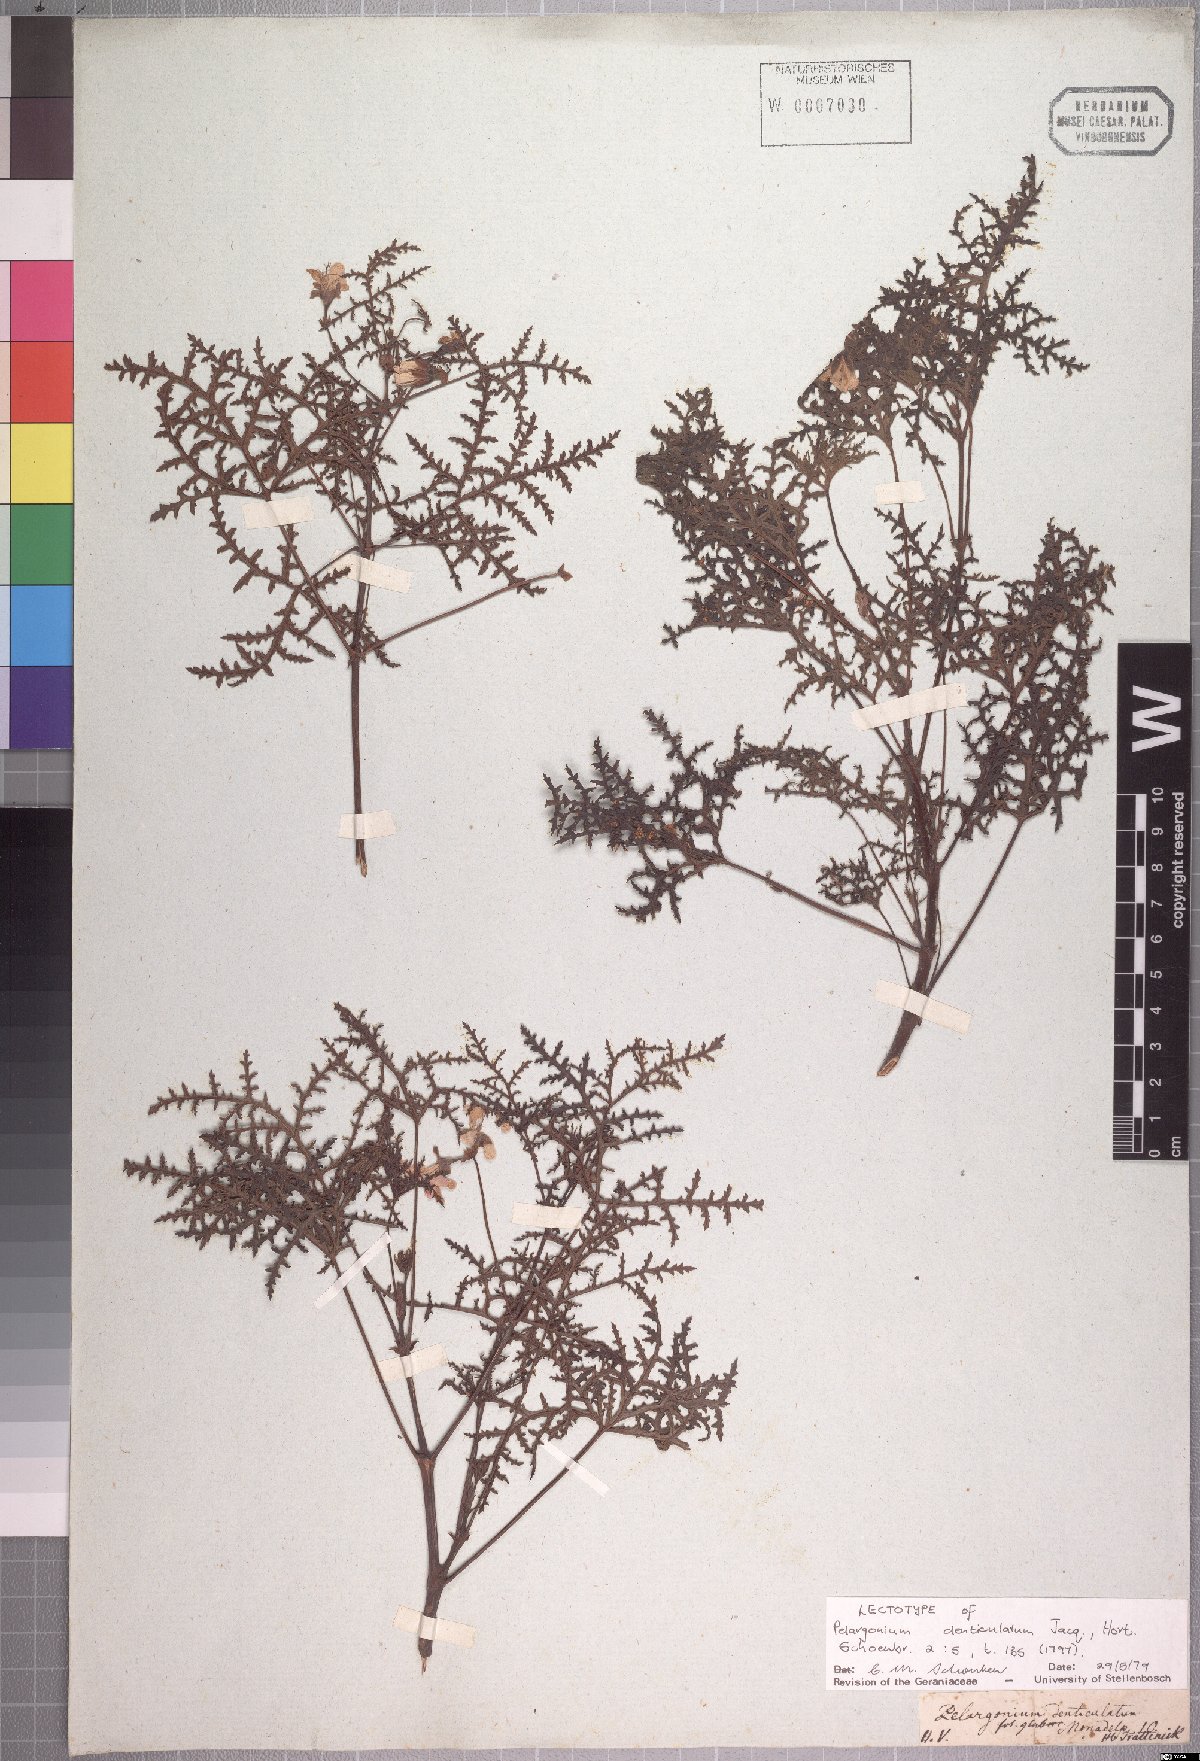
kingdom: Plantae
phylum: Tracheophyta
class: Magnoliopsida
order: Geraniales
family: Geraniaceae
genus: Pelargonium
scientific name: Pelargonium denticulatum
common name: Pine geranium
